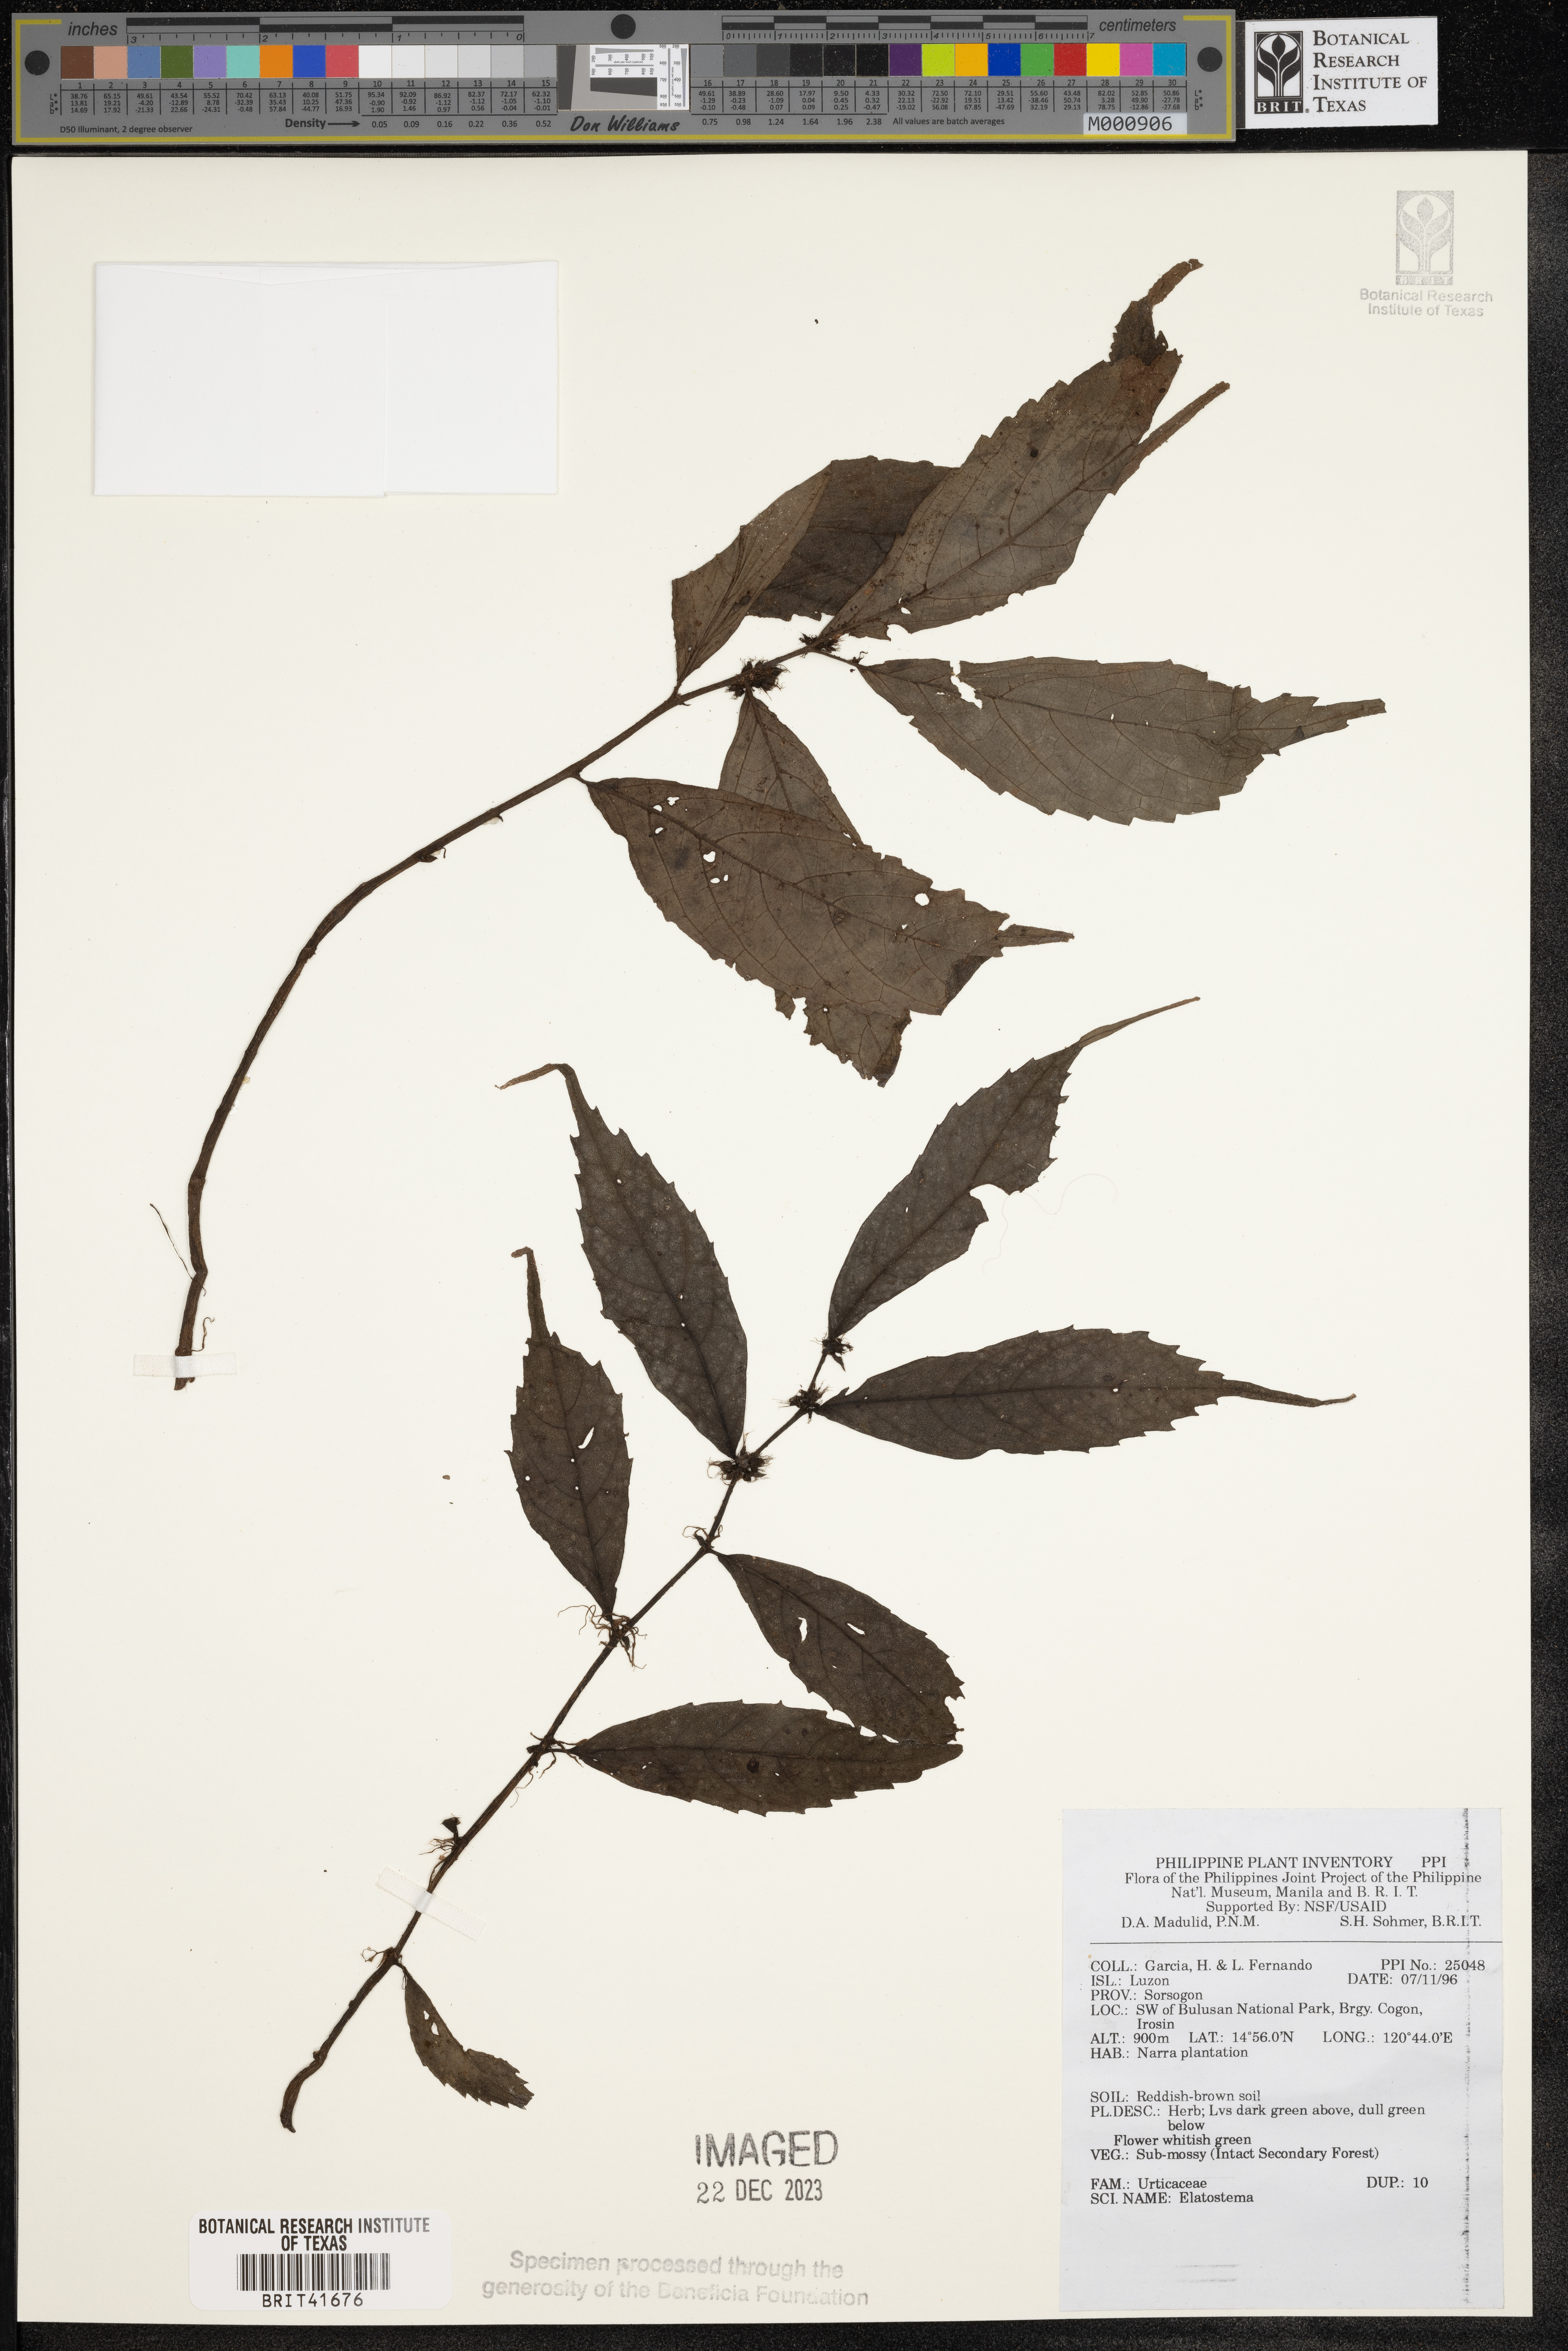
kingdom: Plantae
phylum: Tracheophyta
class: Magnoliopsida
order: Rosales
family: Urticaceae
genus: Elatostema
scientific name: Elatostema
